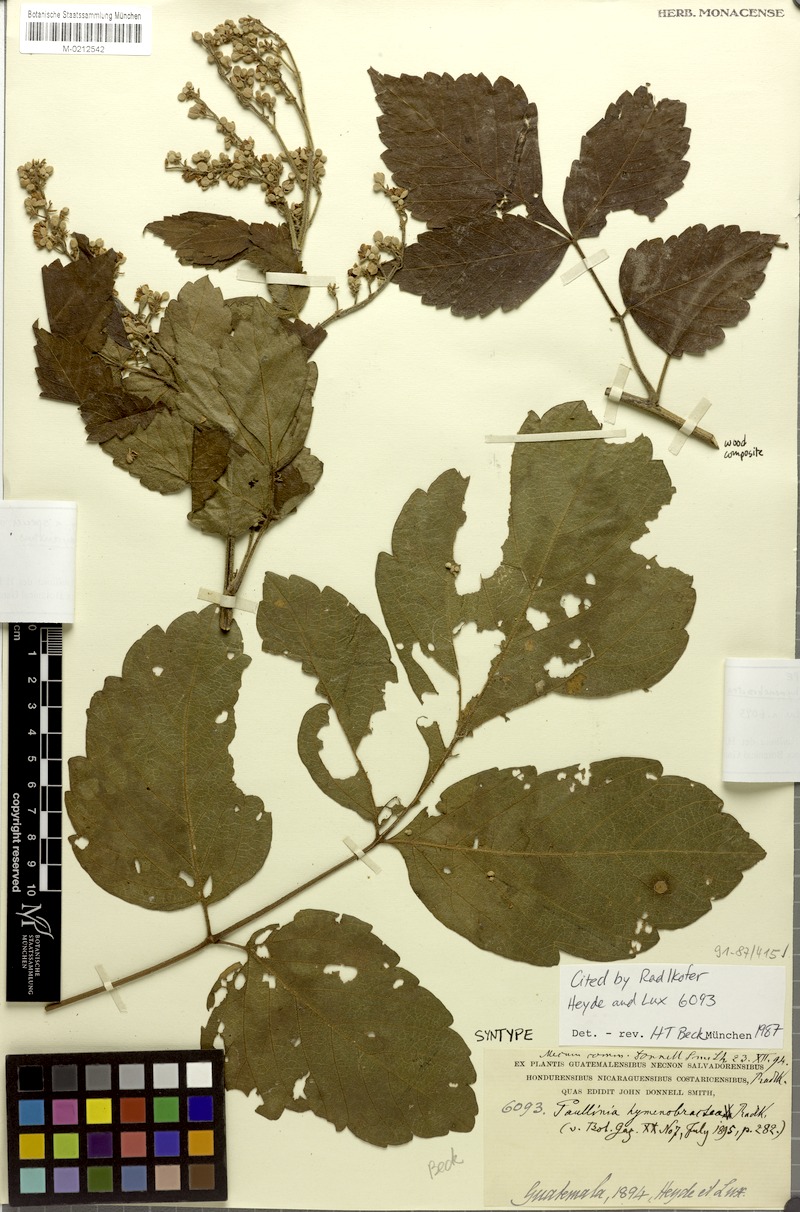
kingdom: Plantae
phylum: Tracheophyta
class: Magnoliopsida
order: Sapindales
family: Sapindaceae
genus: Paullinia
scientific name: Paullinia hymenobracteata
